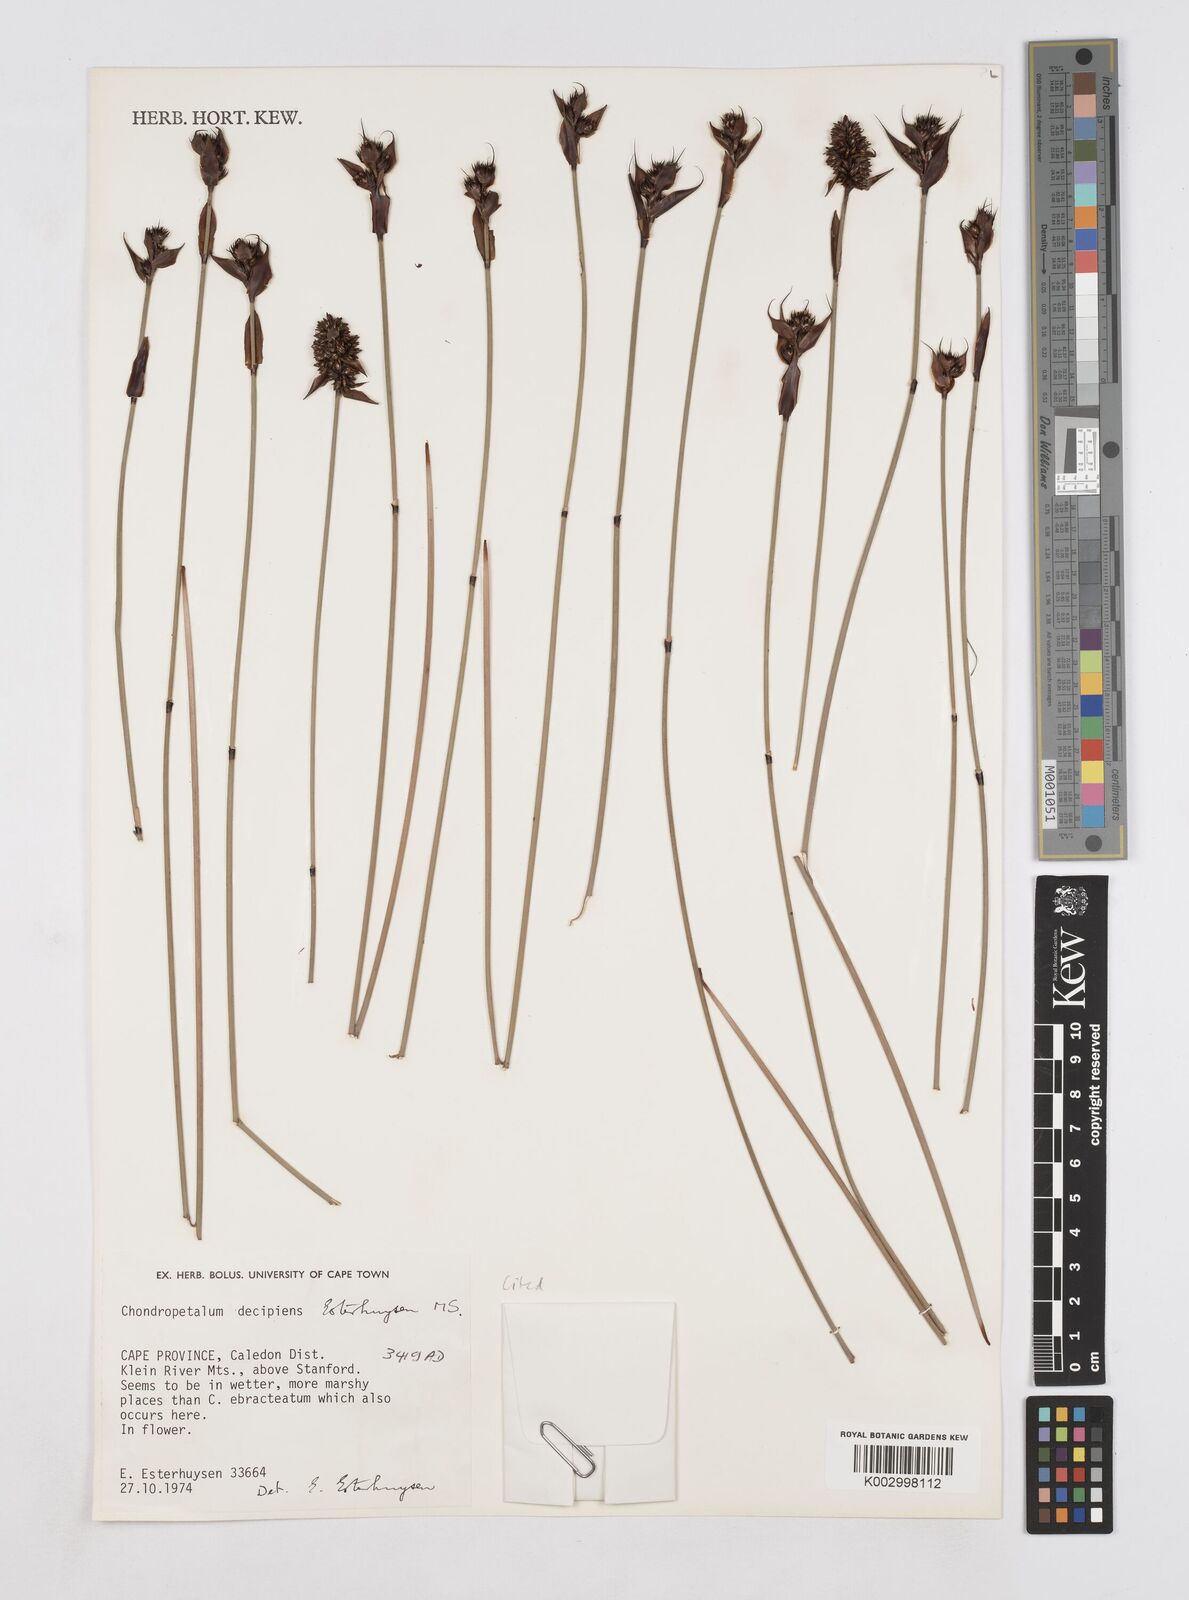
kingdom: Plantae
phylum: Tracheophyta
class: Liliopsida
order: Poales
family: Restionaceae
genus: Elegia
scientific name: Elegia
